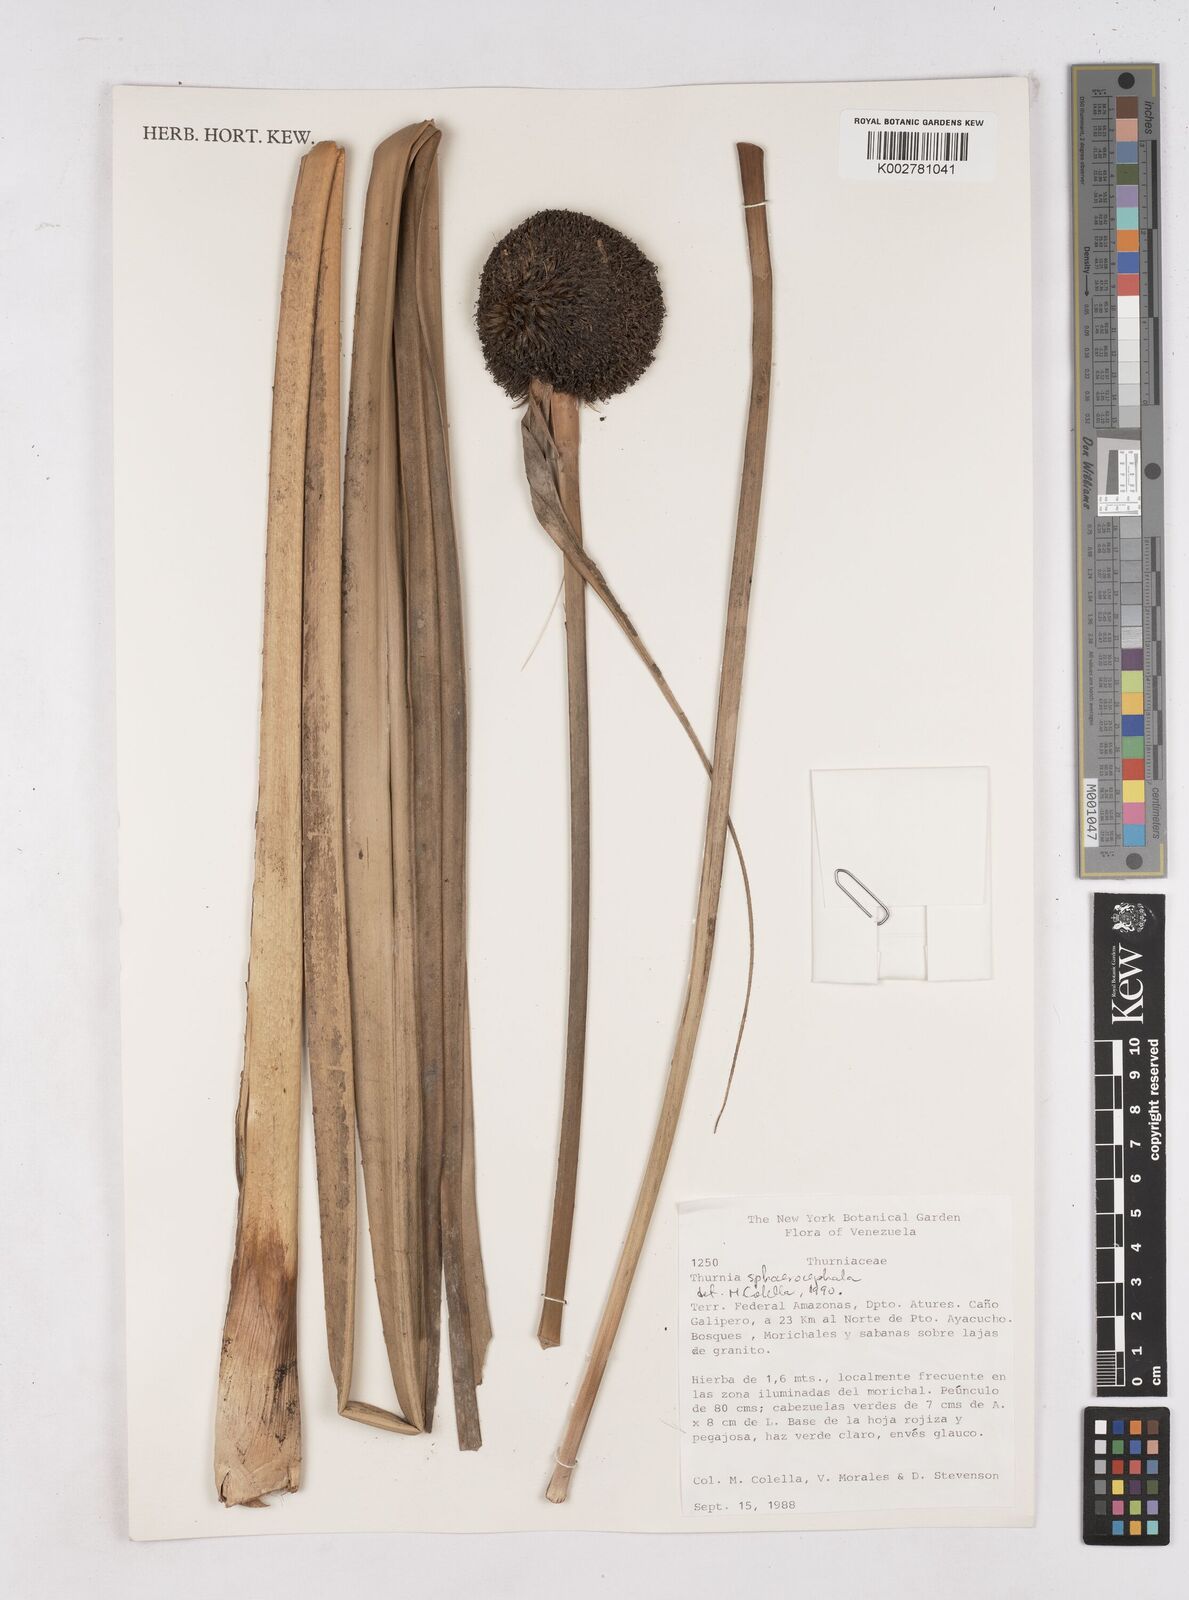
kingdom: Plantae
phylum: Tracheophyta
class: Liliopsida
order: Poales
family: Thurniaceae
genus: Thurnia
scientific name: Thurnia sphaerocephala
